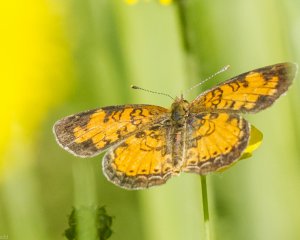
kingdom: Animalia
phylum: Arthropoda
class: Insecta
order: Lepidoptera
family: Nymphalidae
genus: Phyciodes
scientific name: Phyciodes tharos
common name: Northern Crescent
